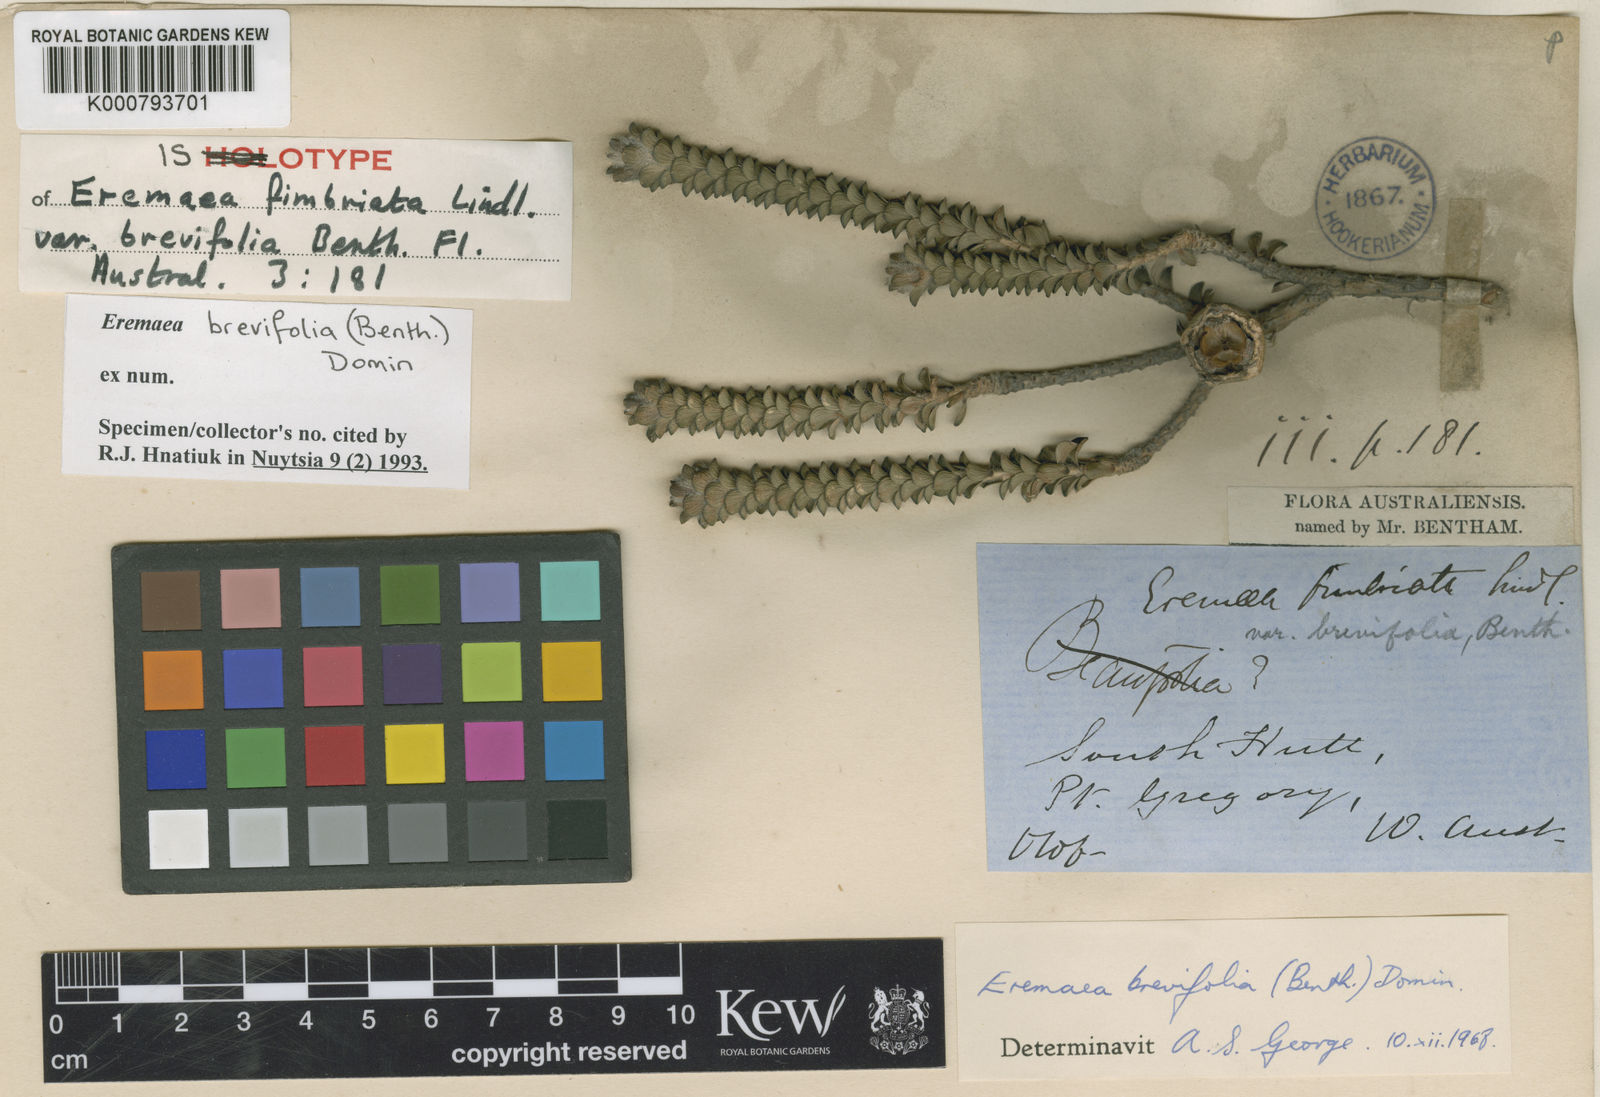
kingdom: Plantae
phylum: Tracheophyta
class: Magnoliopsida
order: Myrtales
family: Myrtaceae
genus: Melaleuca
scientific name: Melaleuca curtifolia
